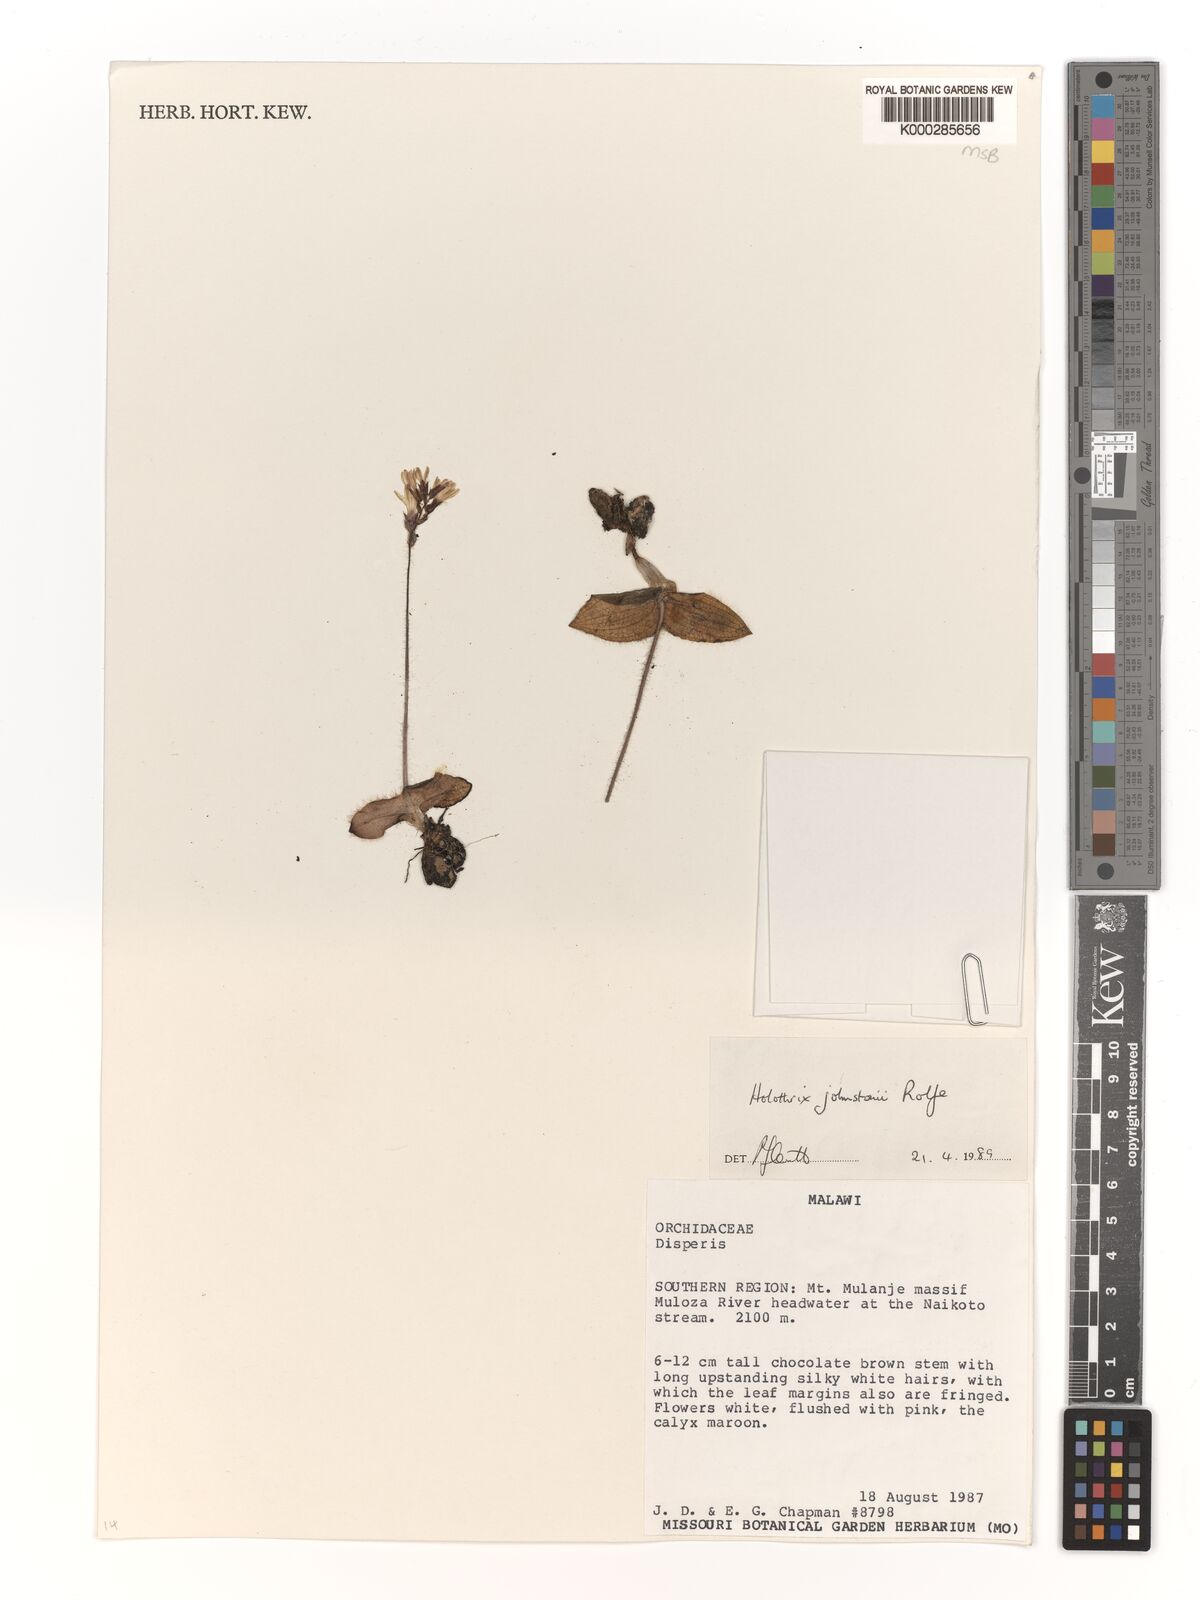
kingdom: Plantae
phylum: Tracheophyta
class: Liliopsida
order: Asparagales
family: Orchidaceae
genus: Holothrix
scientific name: Holothrix johnstonii
